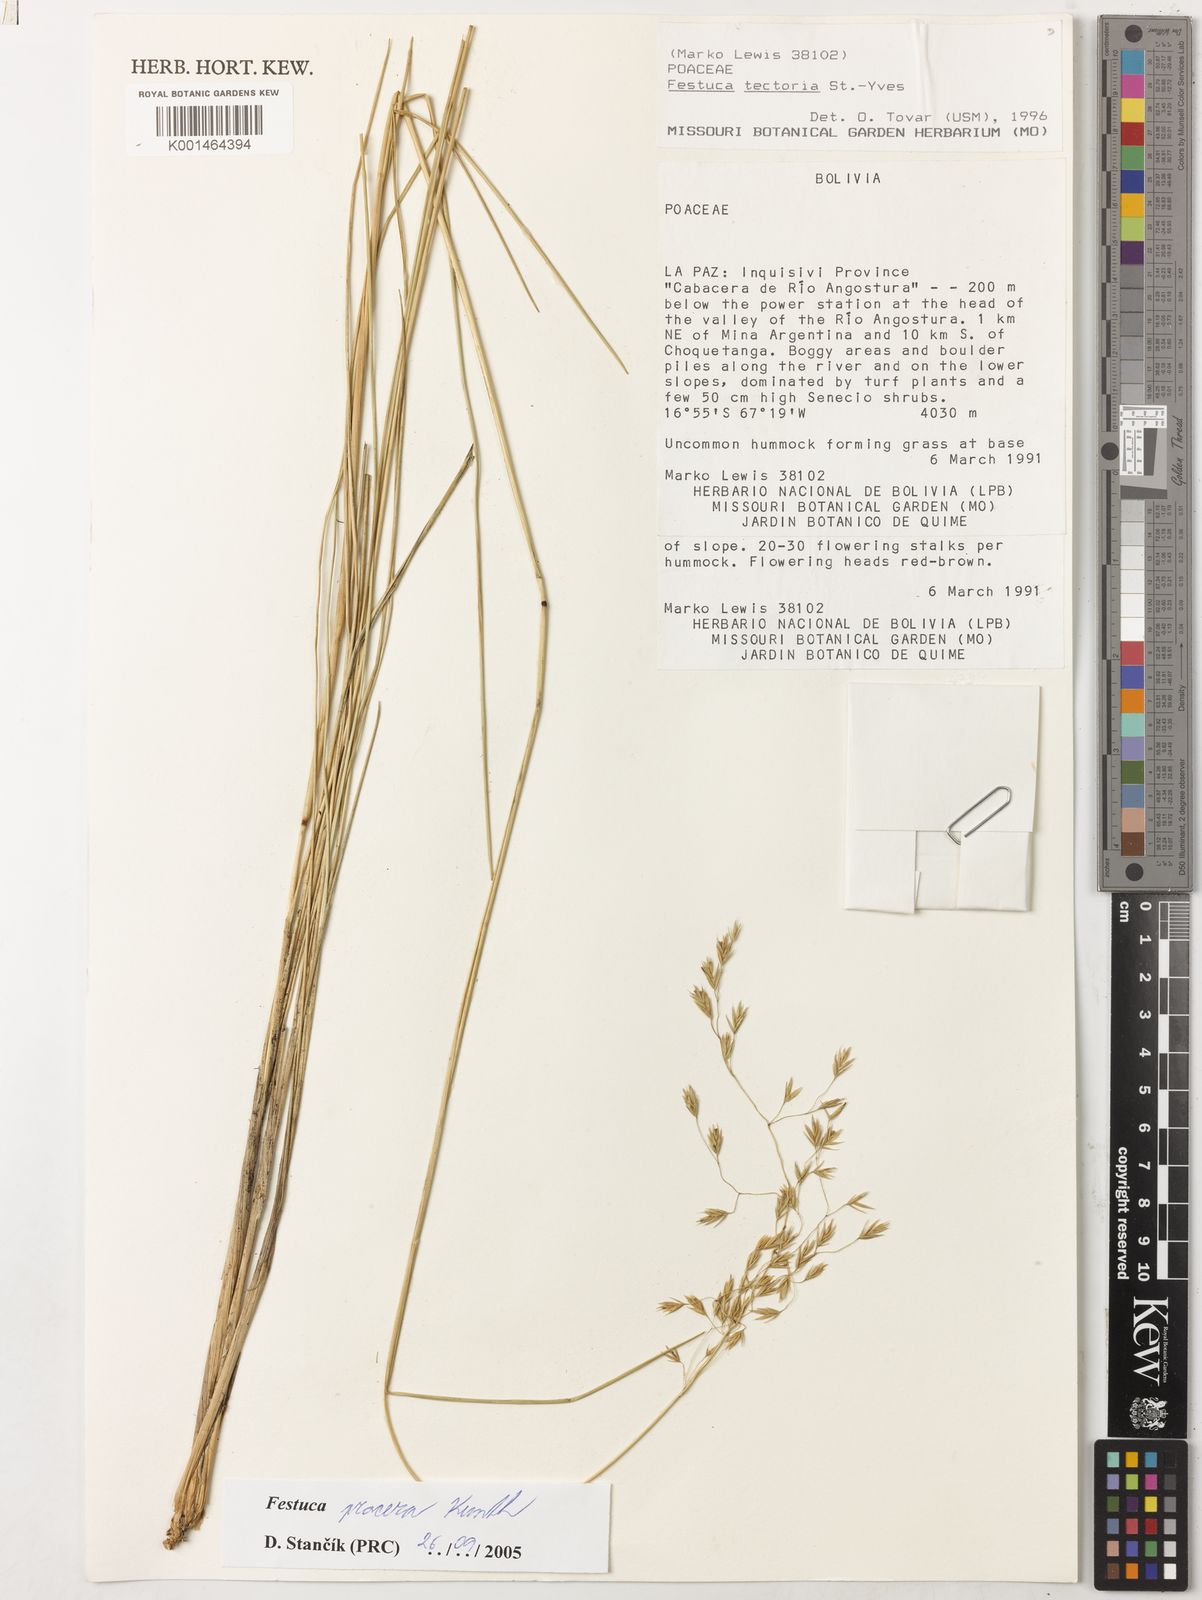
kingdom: Plantae
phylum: Tracheophyta
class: Liliopsida
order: Poales
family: Poaceae
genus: Festuca
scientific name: Festuca procera
